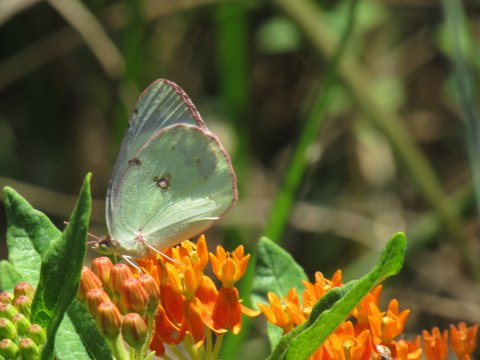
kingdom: Animalia
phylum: Arthropoda
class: Insecta
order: Lepidoptera
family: Pieridae
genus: Colias
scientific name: Colias philodice
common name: Clouded Sulphur
